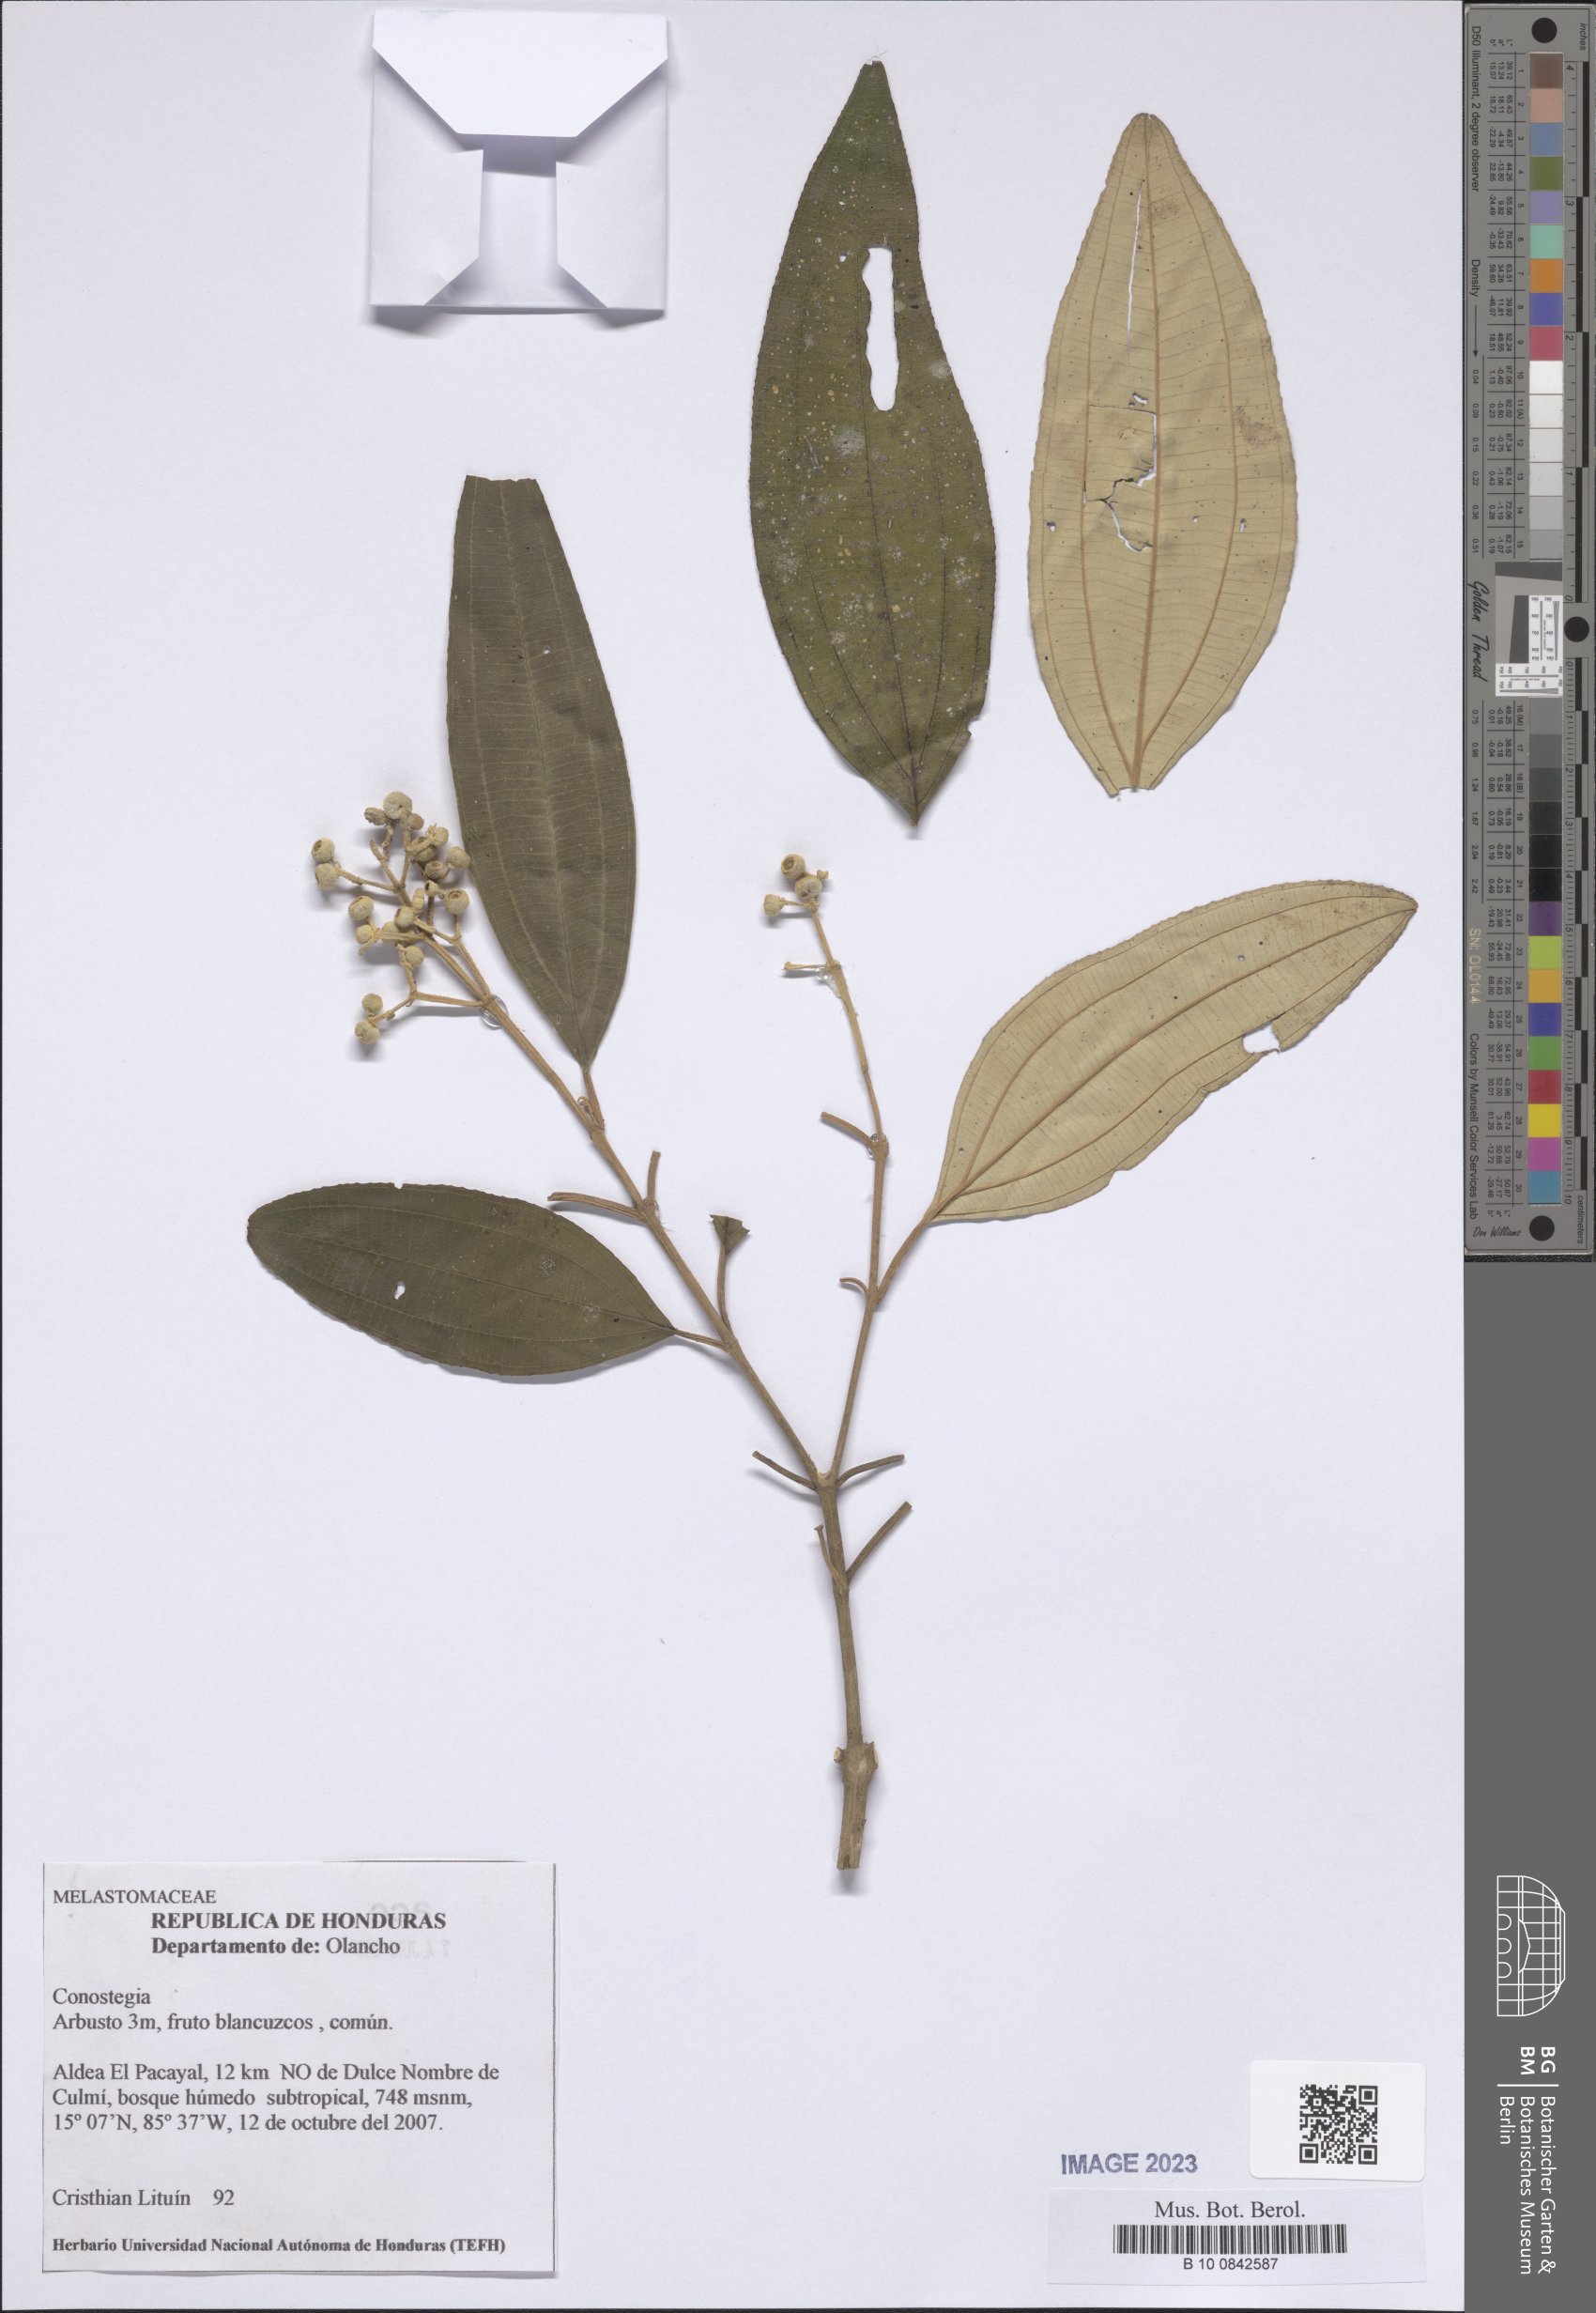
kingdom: Plantae
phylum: Tracheophyta
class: Magnoliopsida
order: Myrtales
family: Melastomataceae
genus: Miconia
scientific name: Miconia
